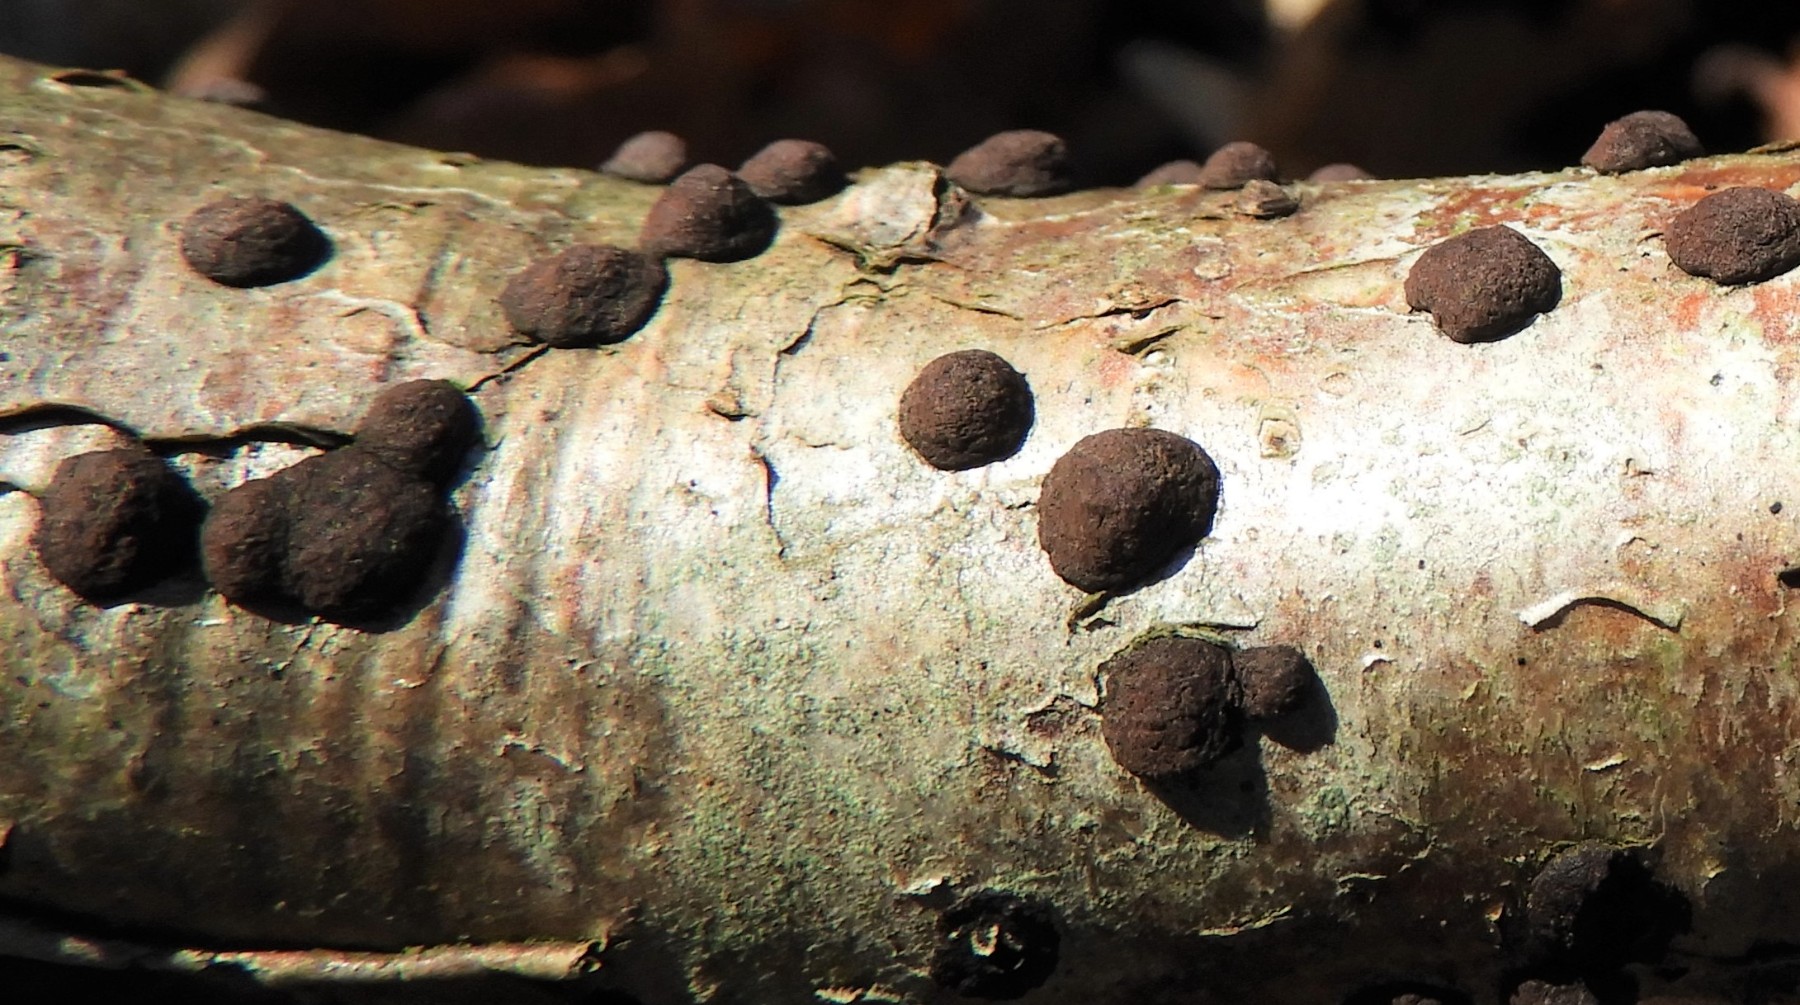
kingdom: Fungi
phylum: Ascomycota
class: Sordariomycetes
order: Xylariales
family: Hypoxylaceae
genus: Hypoxylon
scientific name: Hypoxylon fuscum
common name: kegleformet kulbær
